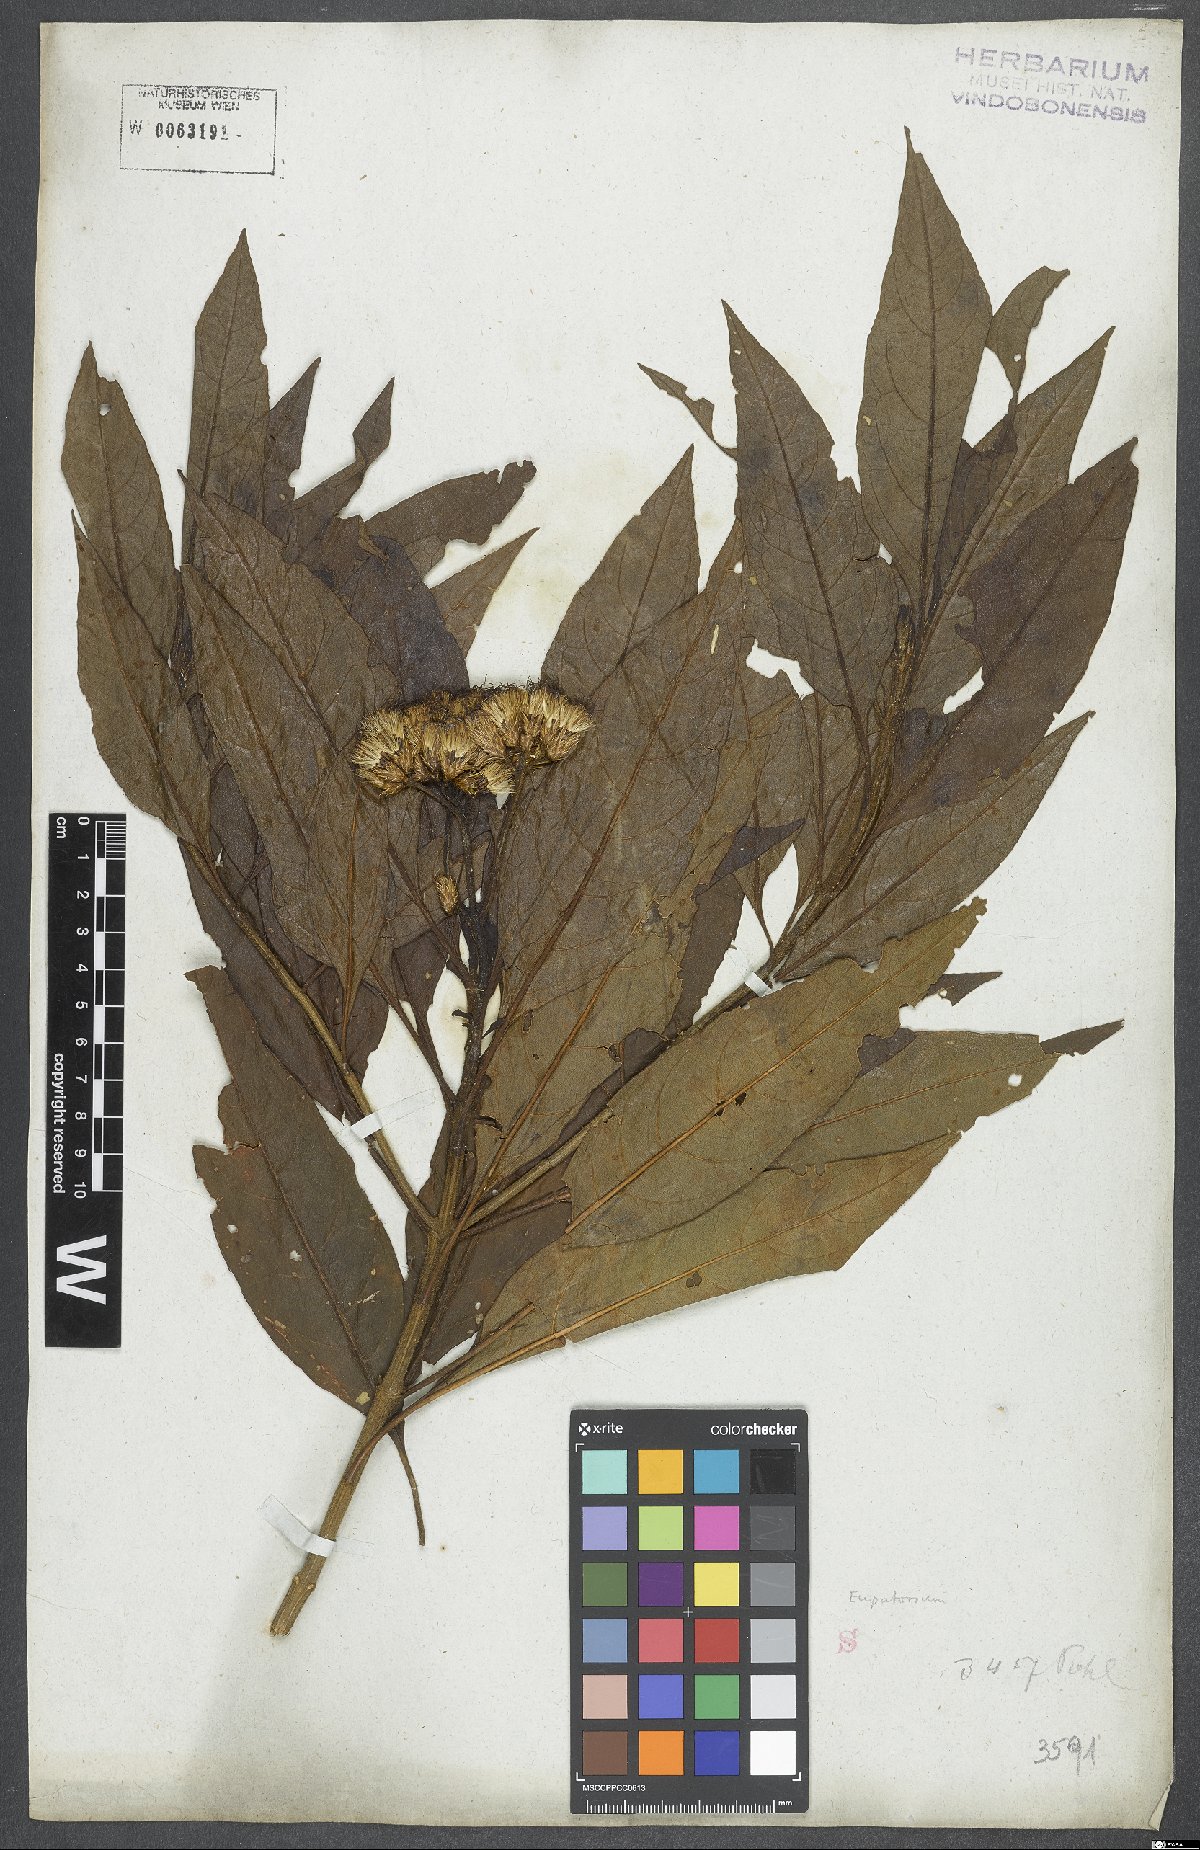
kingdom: Plantae
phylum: Tracheophyta
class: Magnoliopsida
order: Asterales
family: Asteraceae
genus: Eupatorium
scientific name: Eupatorium
